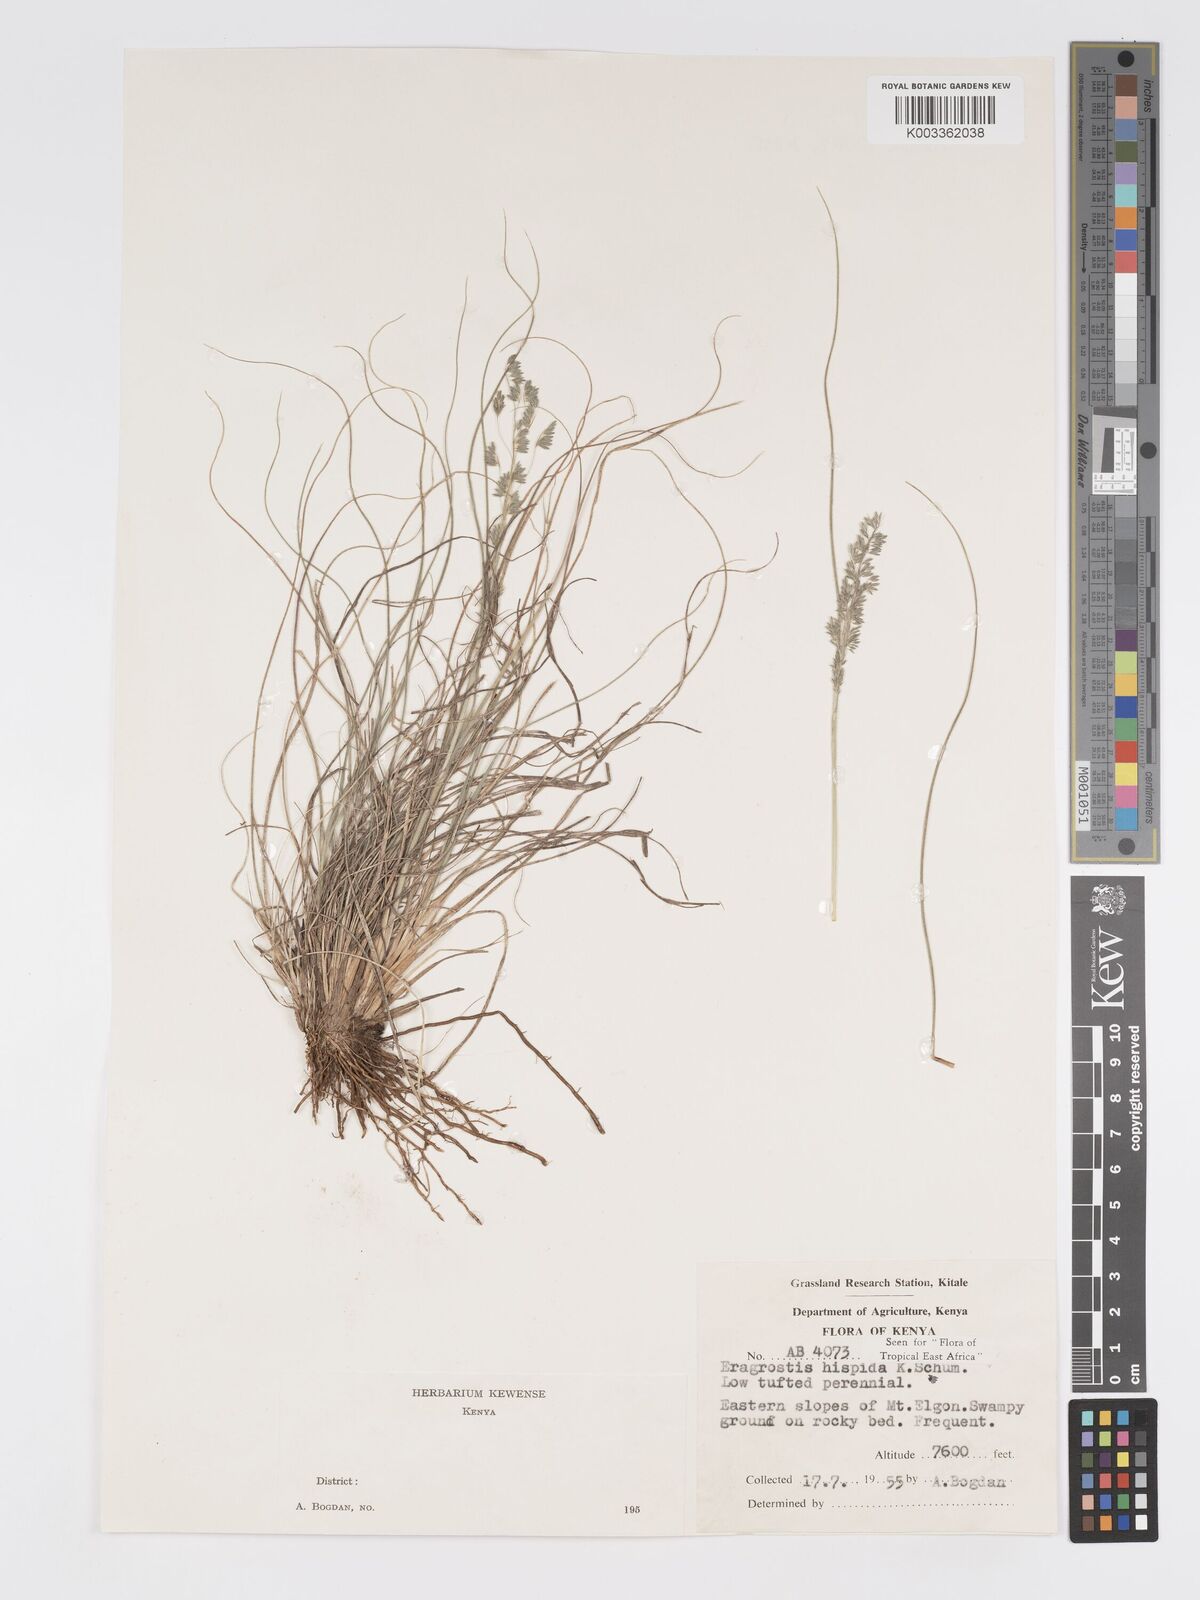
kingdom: Plantae
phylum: Tracheophyta
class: Liliopsida
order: Poales
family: Poaceae
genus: Eragrostis
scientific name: Eragrostis hispida
